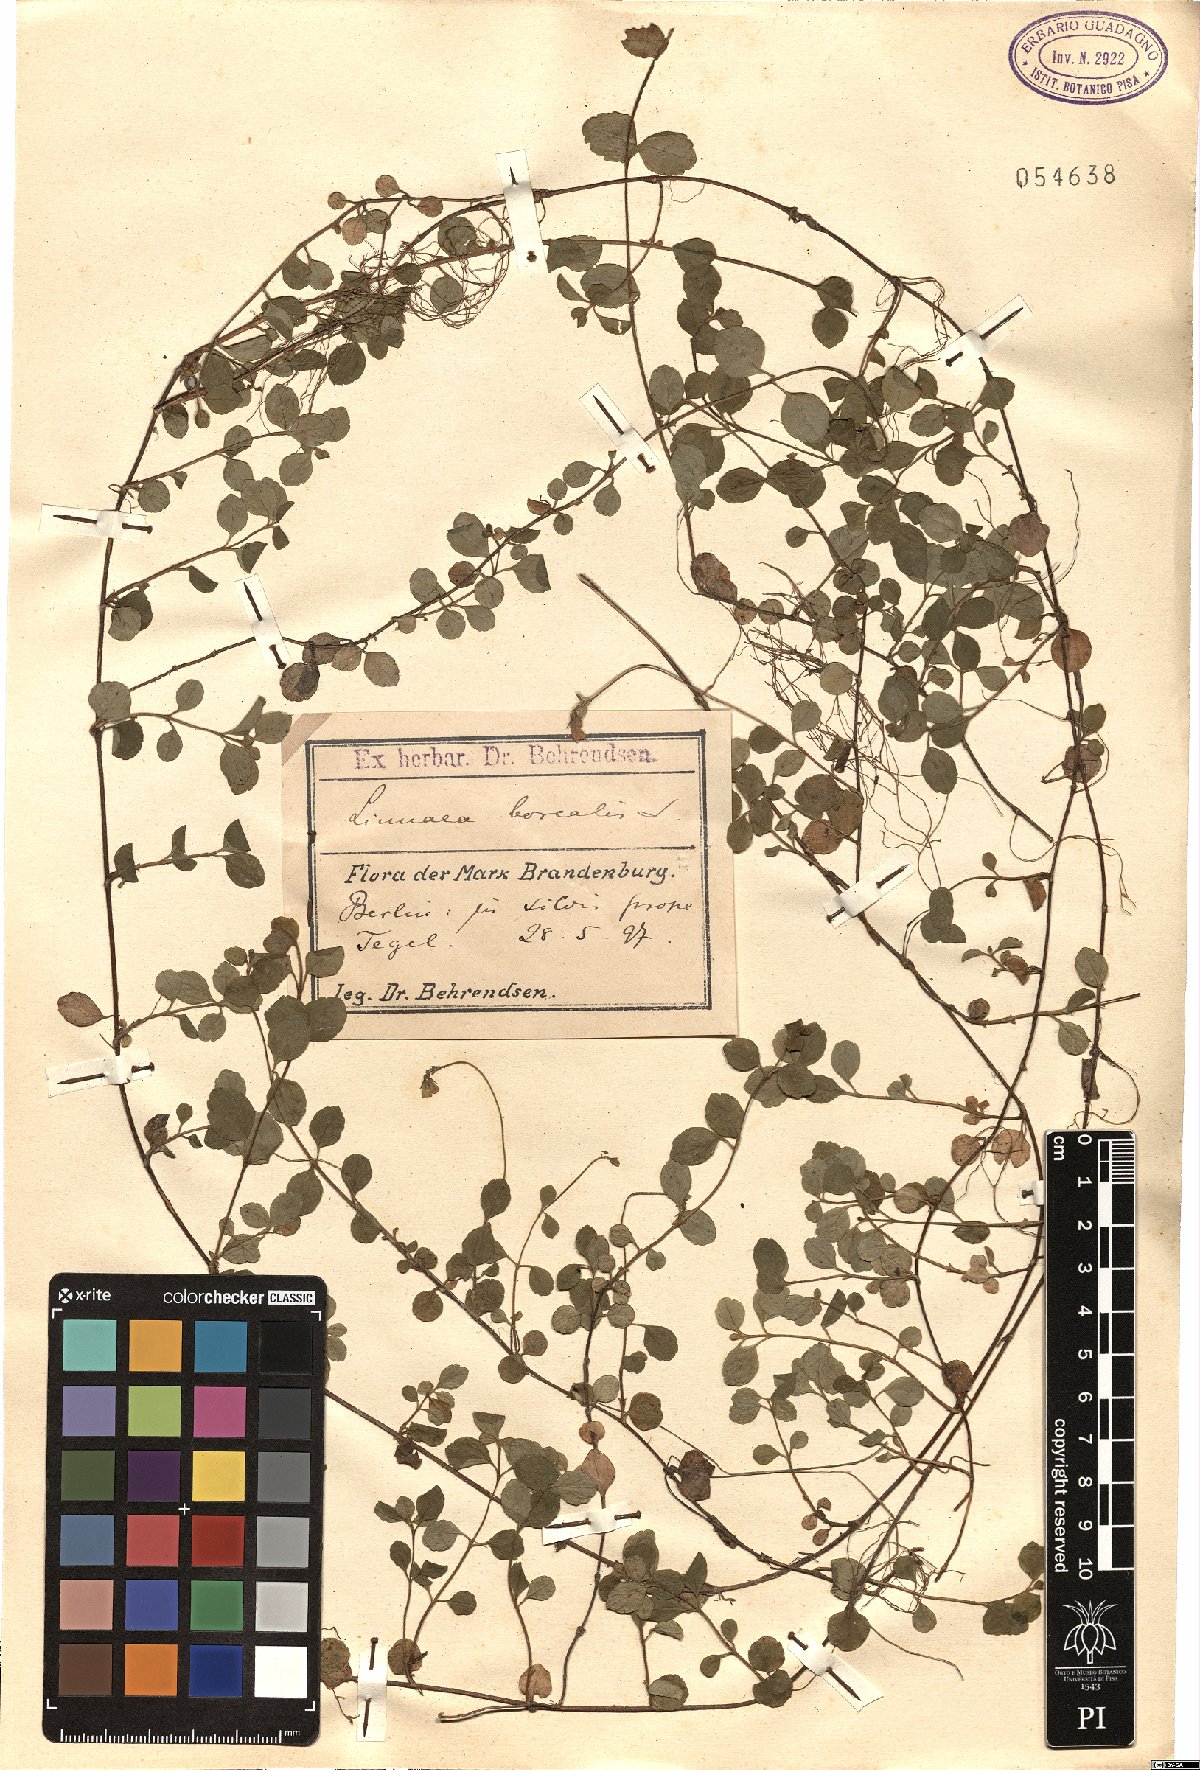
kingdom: Plantae
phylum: Tracheophyta
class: Magnoliopsida
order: Dipsacales
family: Caprifoliaceae
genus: Linnaea
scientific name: Linnaea borealis
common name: Twinflower
